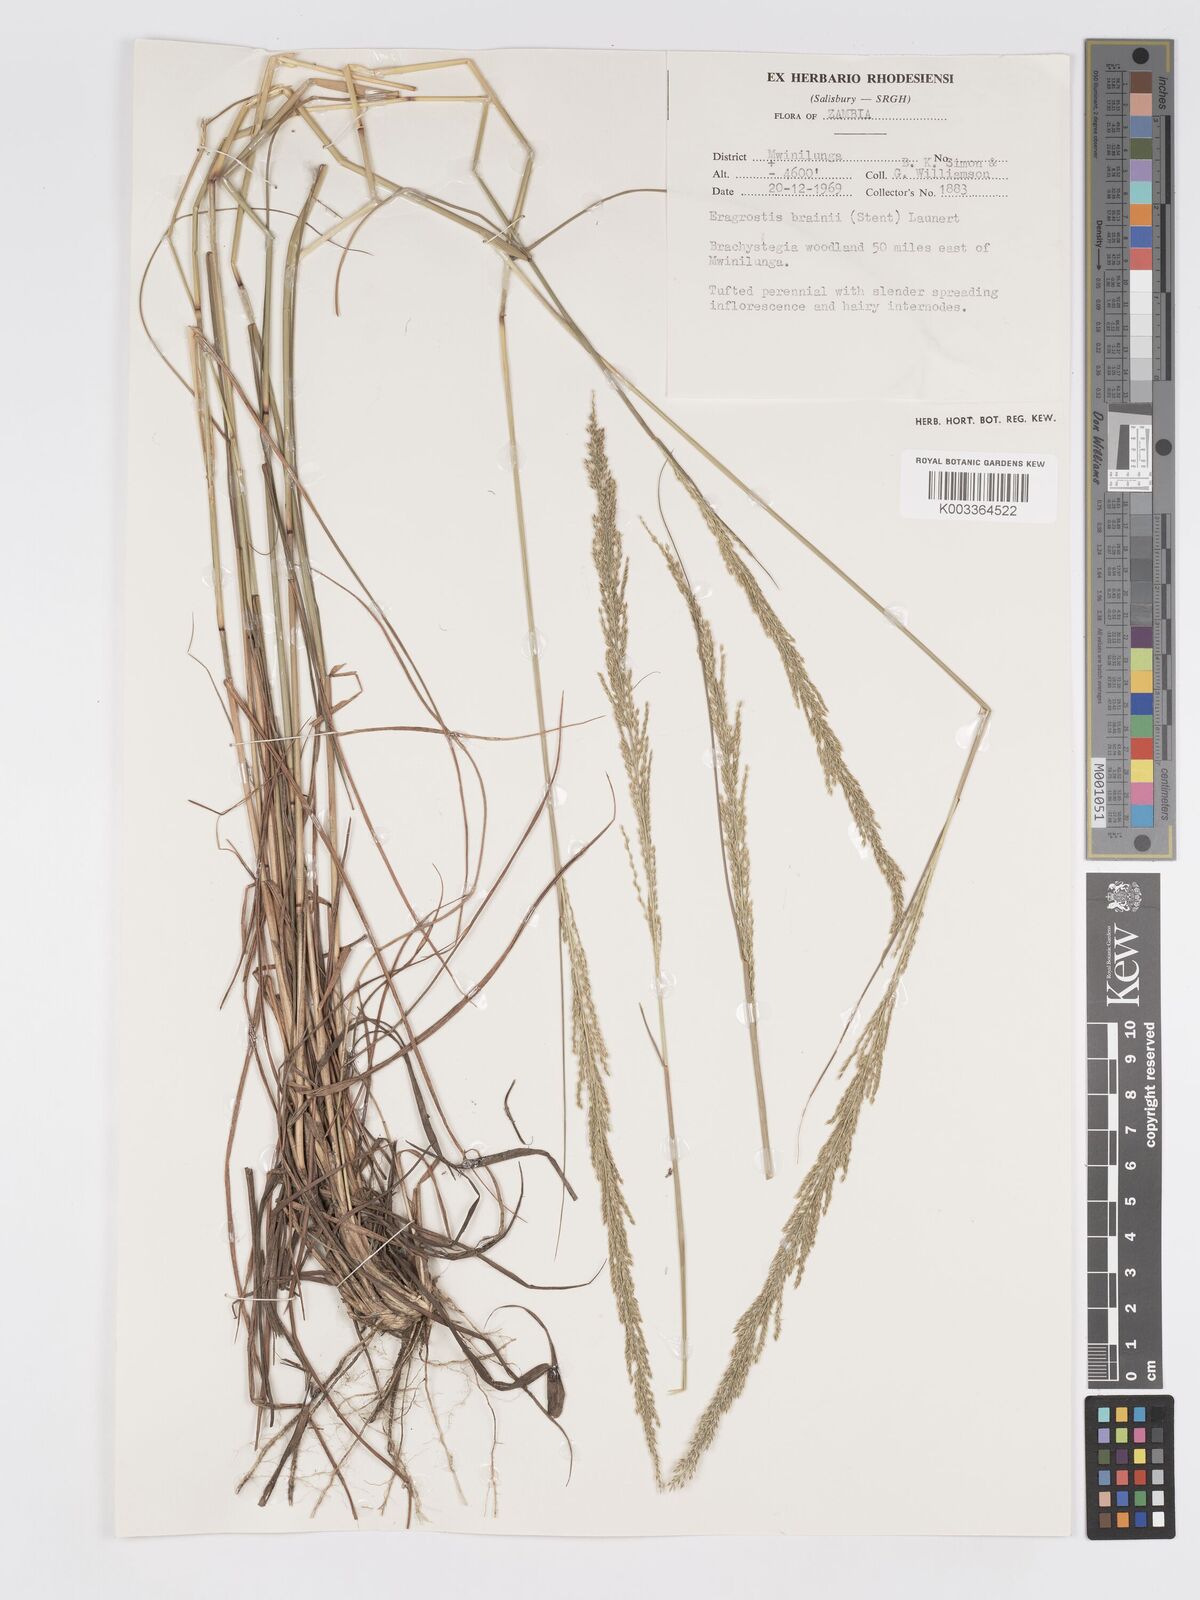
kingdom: Plantae
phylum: Tracheophyta
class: Liliopsida
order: Poales
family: Poaceae
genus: Eragrostis
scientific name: Eragrostis brainii
